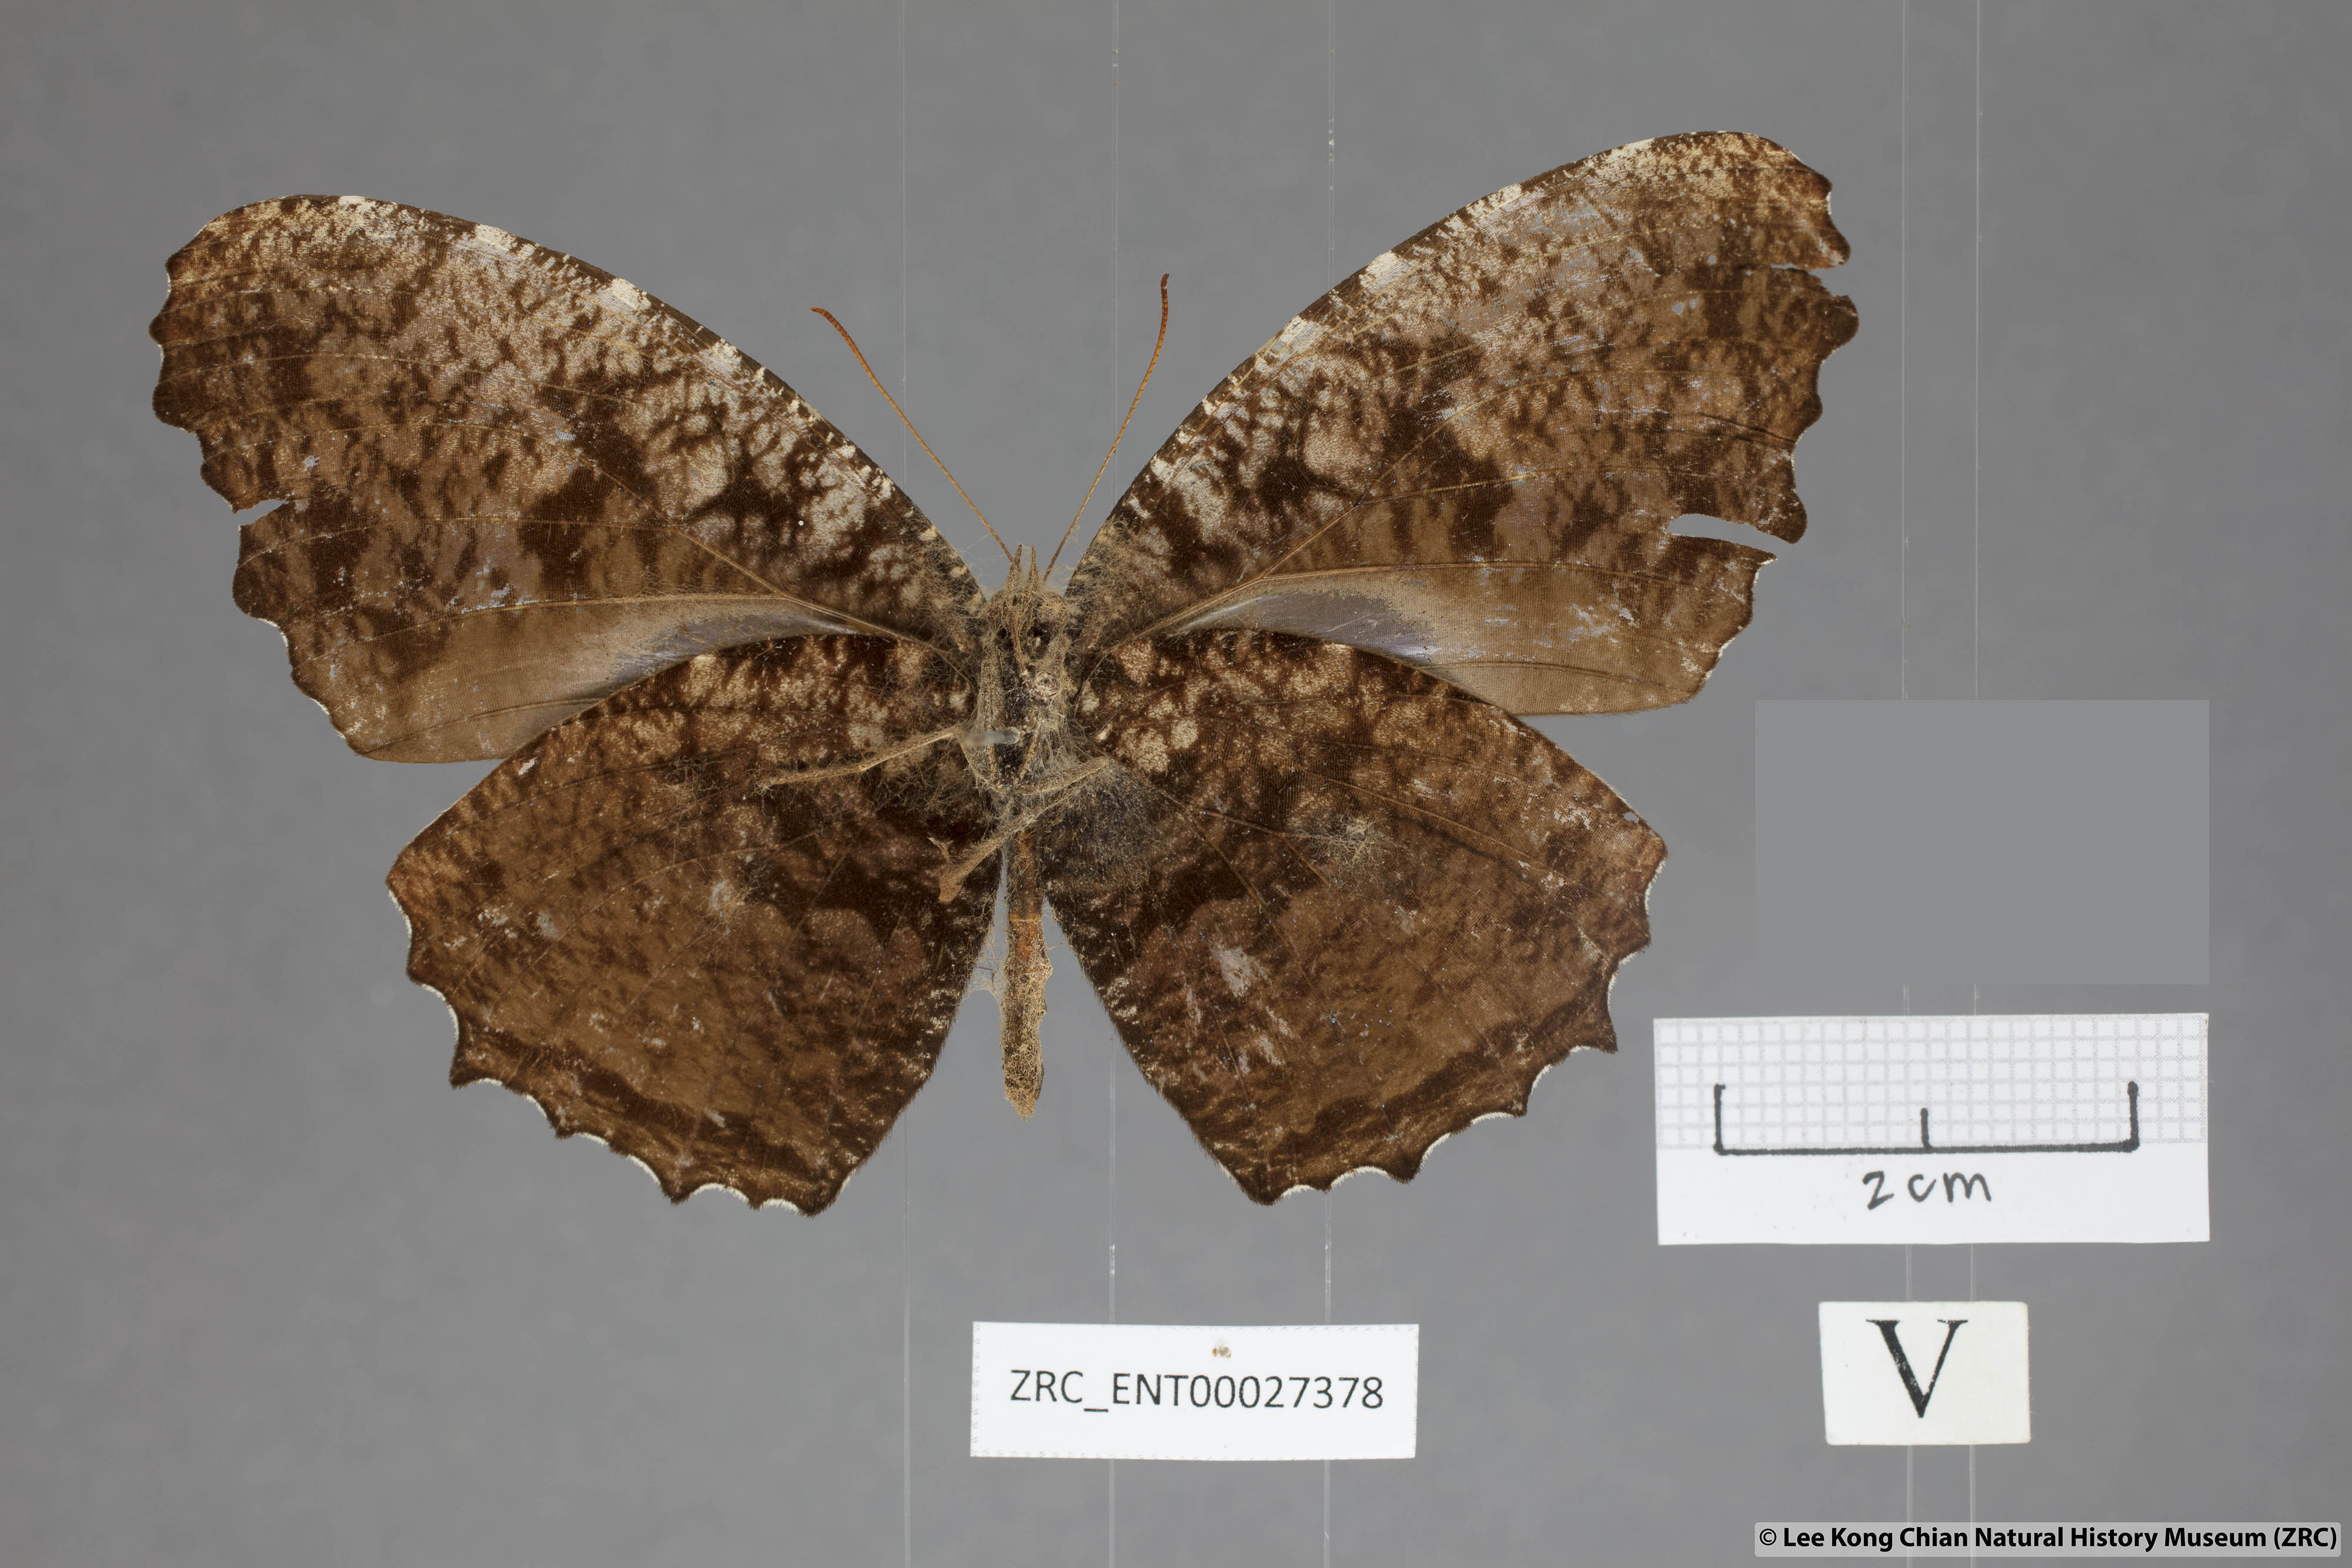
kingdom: Animalia
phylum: Arthropoda
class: Insecta
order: Lepidoptera
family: Nymphalidae
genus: Elymnias
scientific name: Elymnias casiphone
